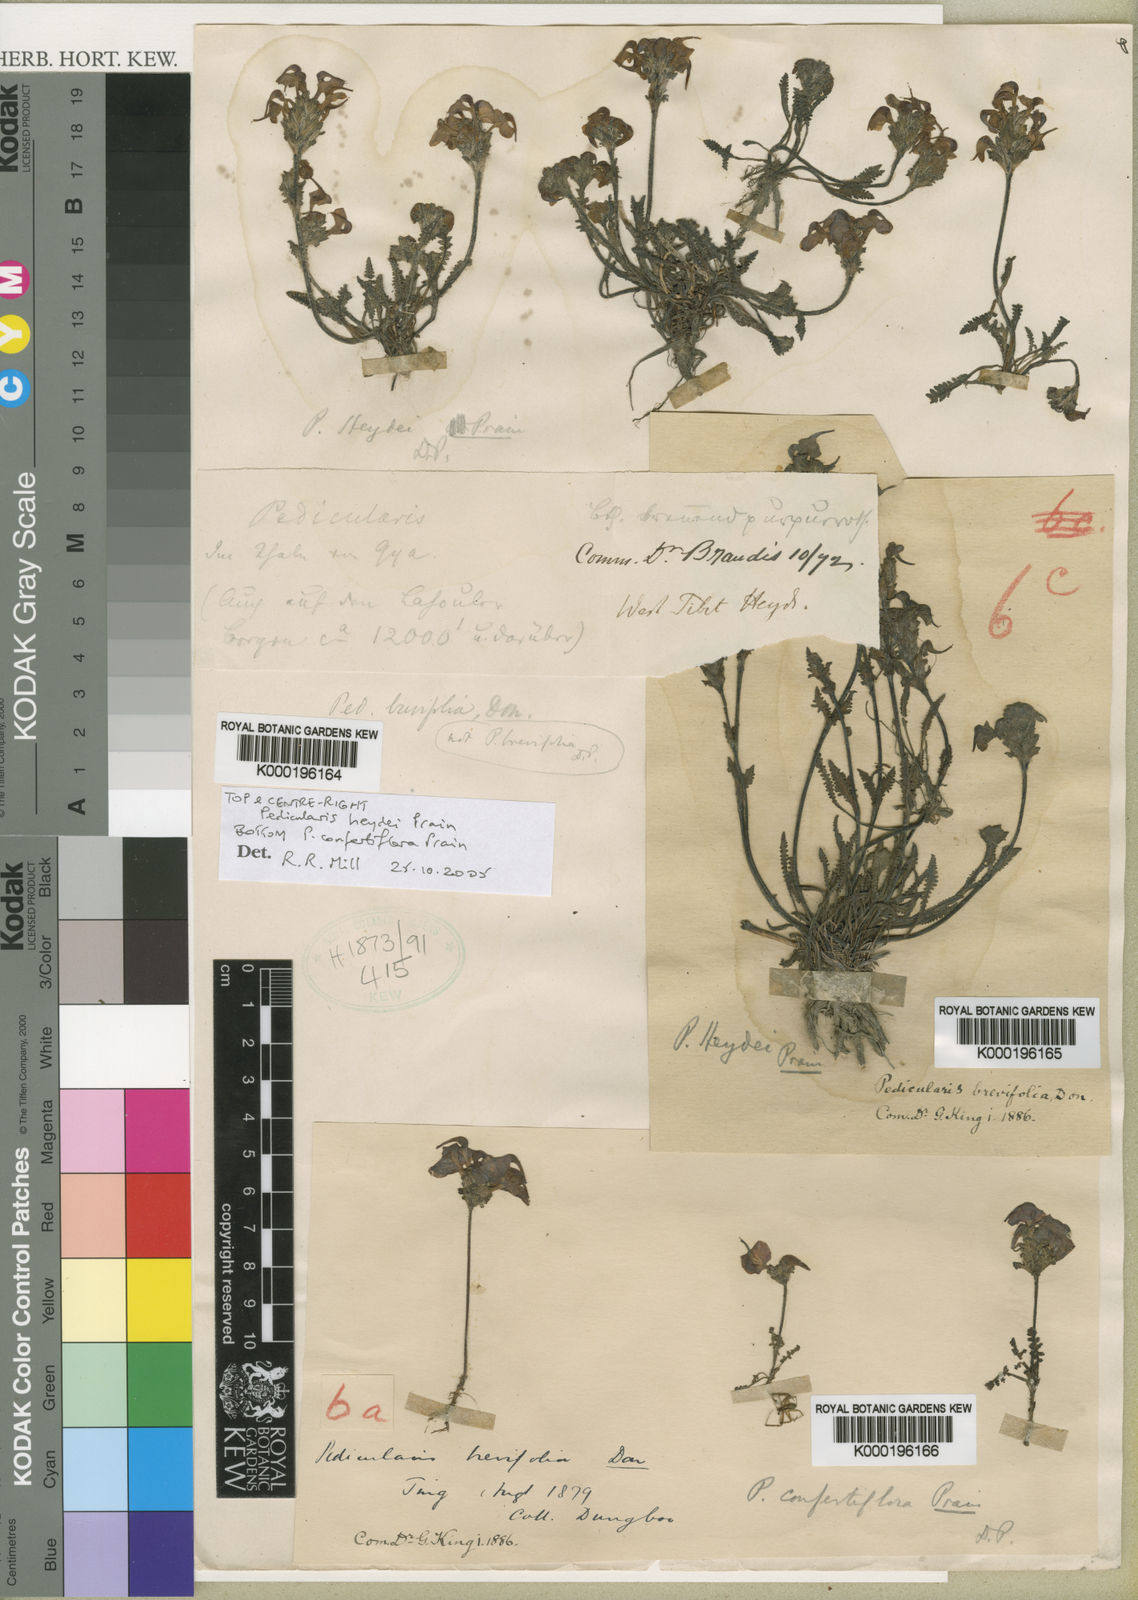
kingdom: Plantae
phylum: Tracheophyta
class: Magnoliopsida
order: Lamiales
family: Orobanchaceae
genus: Pedicularis
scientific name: Pedicularis heydei
